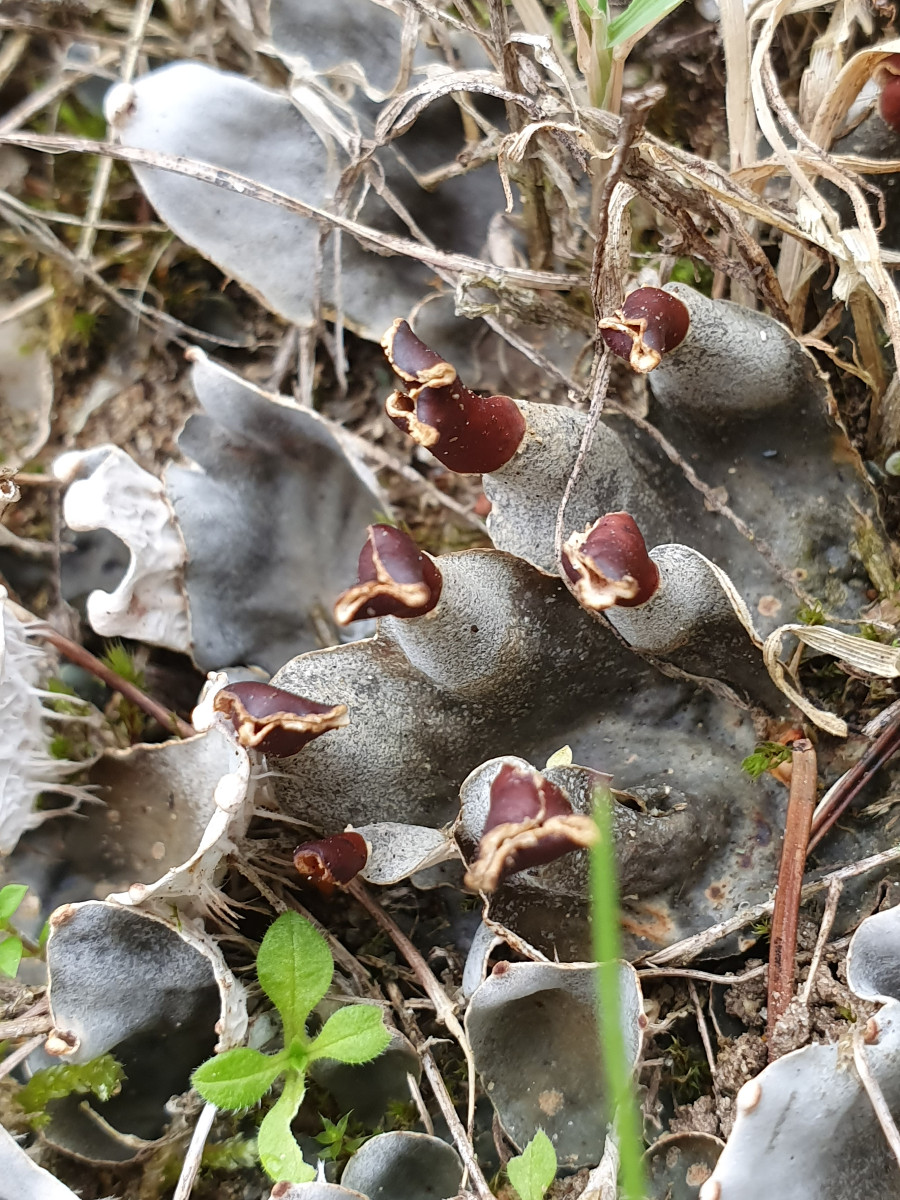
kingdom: Fungi
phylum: Ascomycota
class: Lecanoromycetes
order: Peltigerales
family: Peltigeraceae
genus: Peltigera
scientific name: Peltigera didactyla
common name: liden skjoldlav
